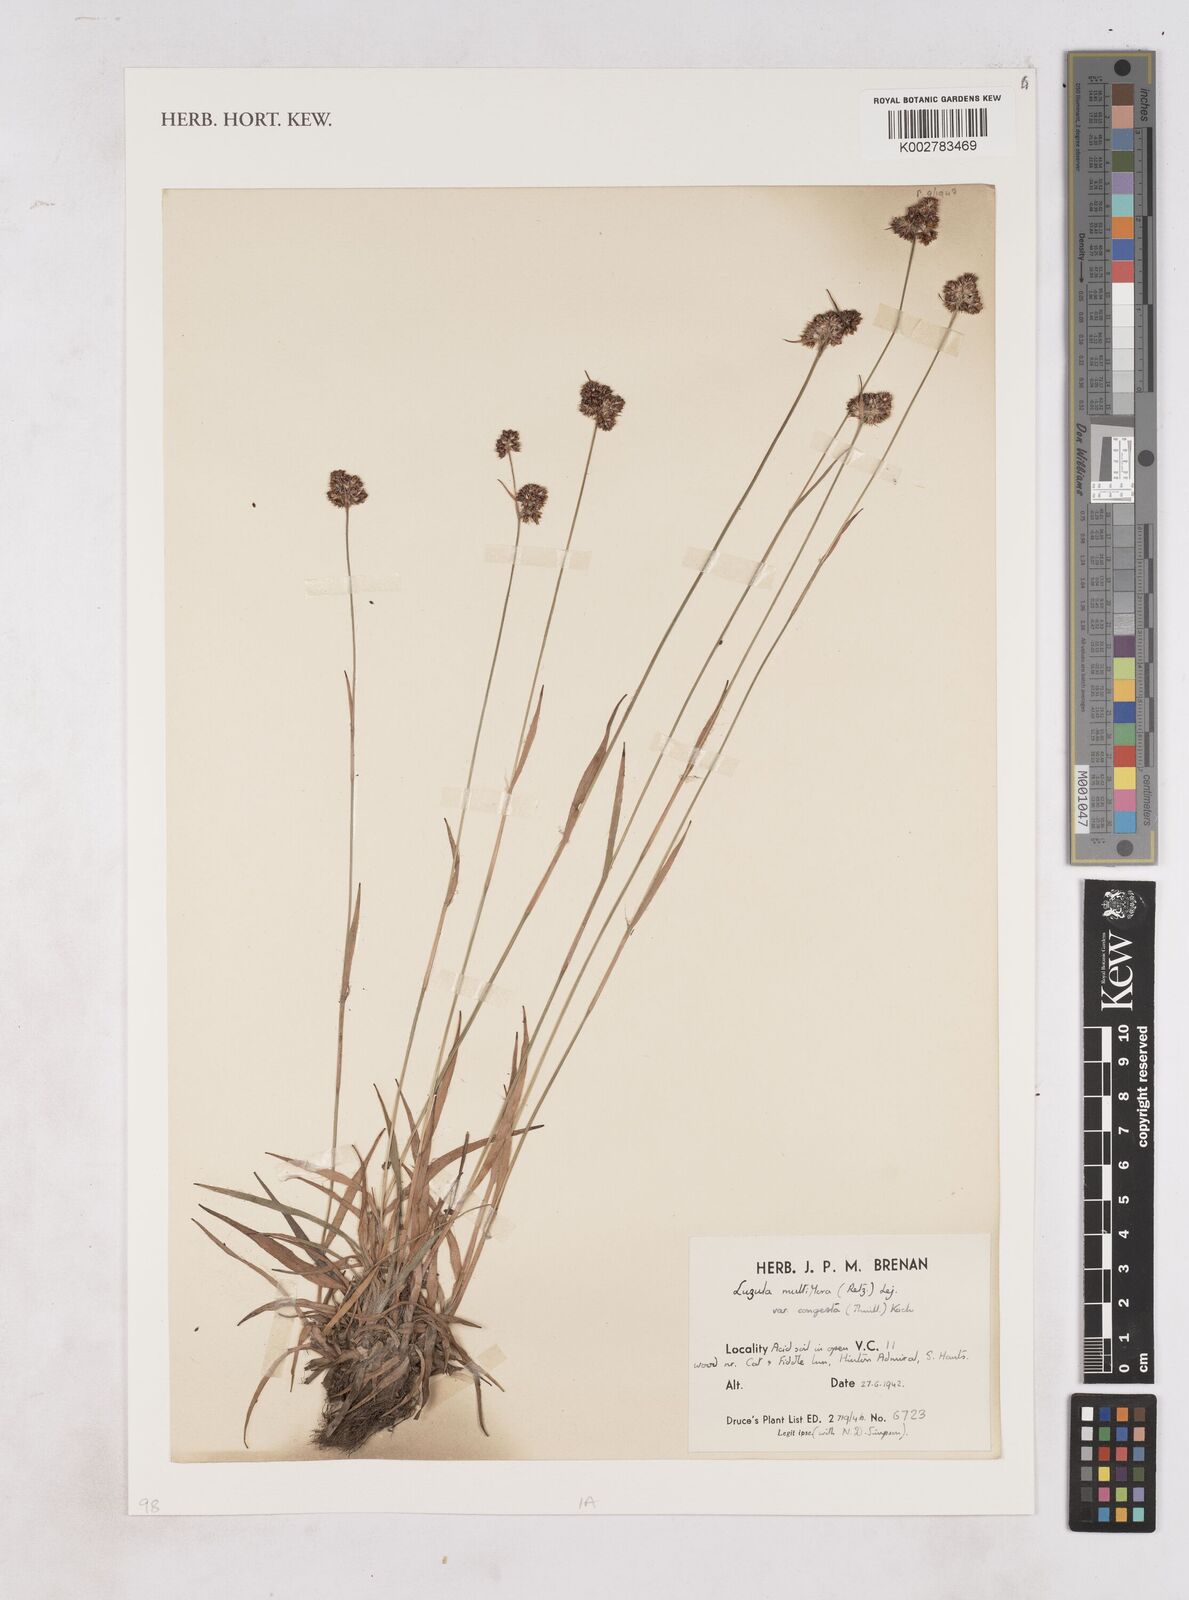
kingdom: Plantae
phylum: Tracheophyta
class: Liliopsida
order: Poales
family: Juncaceae
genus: Luzula
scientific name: Luzula multiflora
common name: Heath wood-rush
